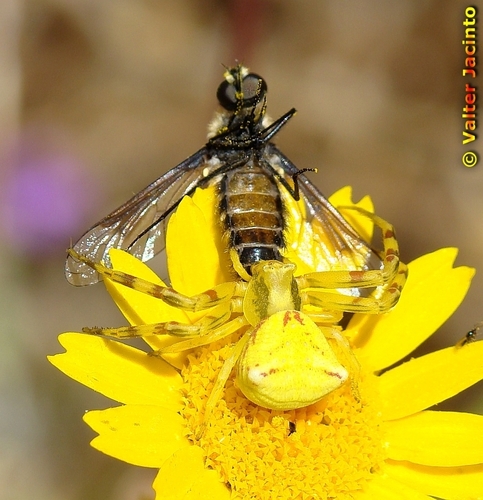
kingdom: Animalia
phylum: Arthropoda
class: Arachnida
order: Araneae
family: Thomisidae
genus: Thomisus
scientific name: Thomisus onustus
